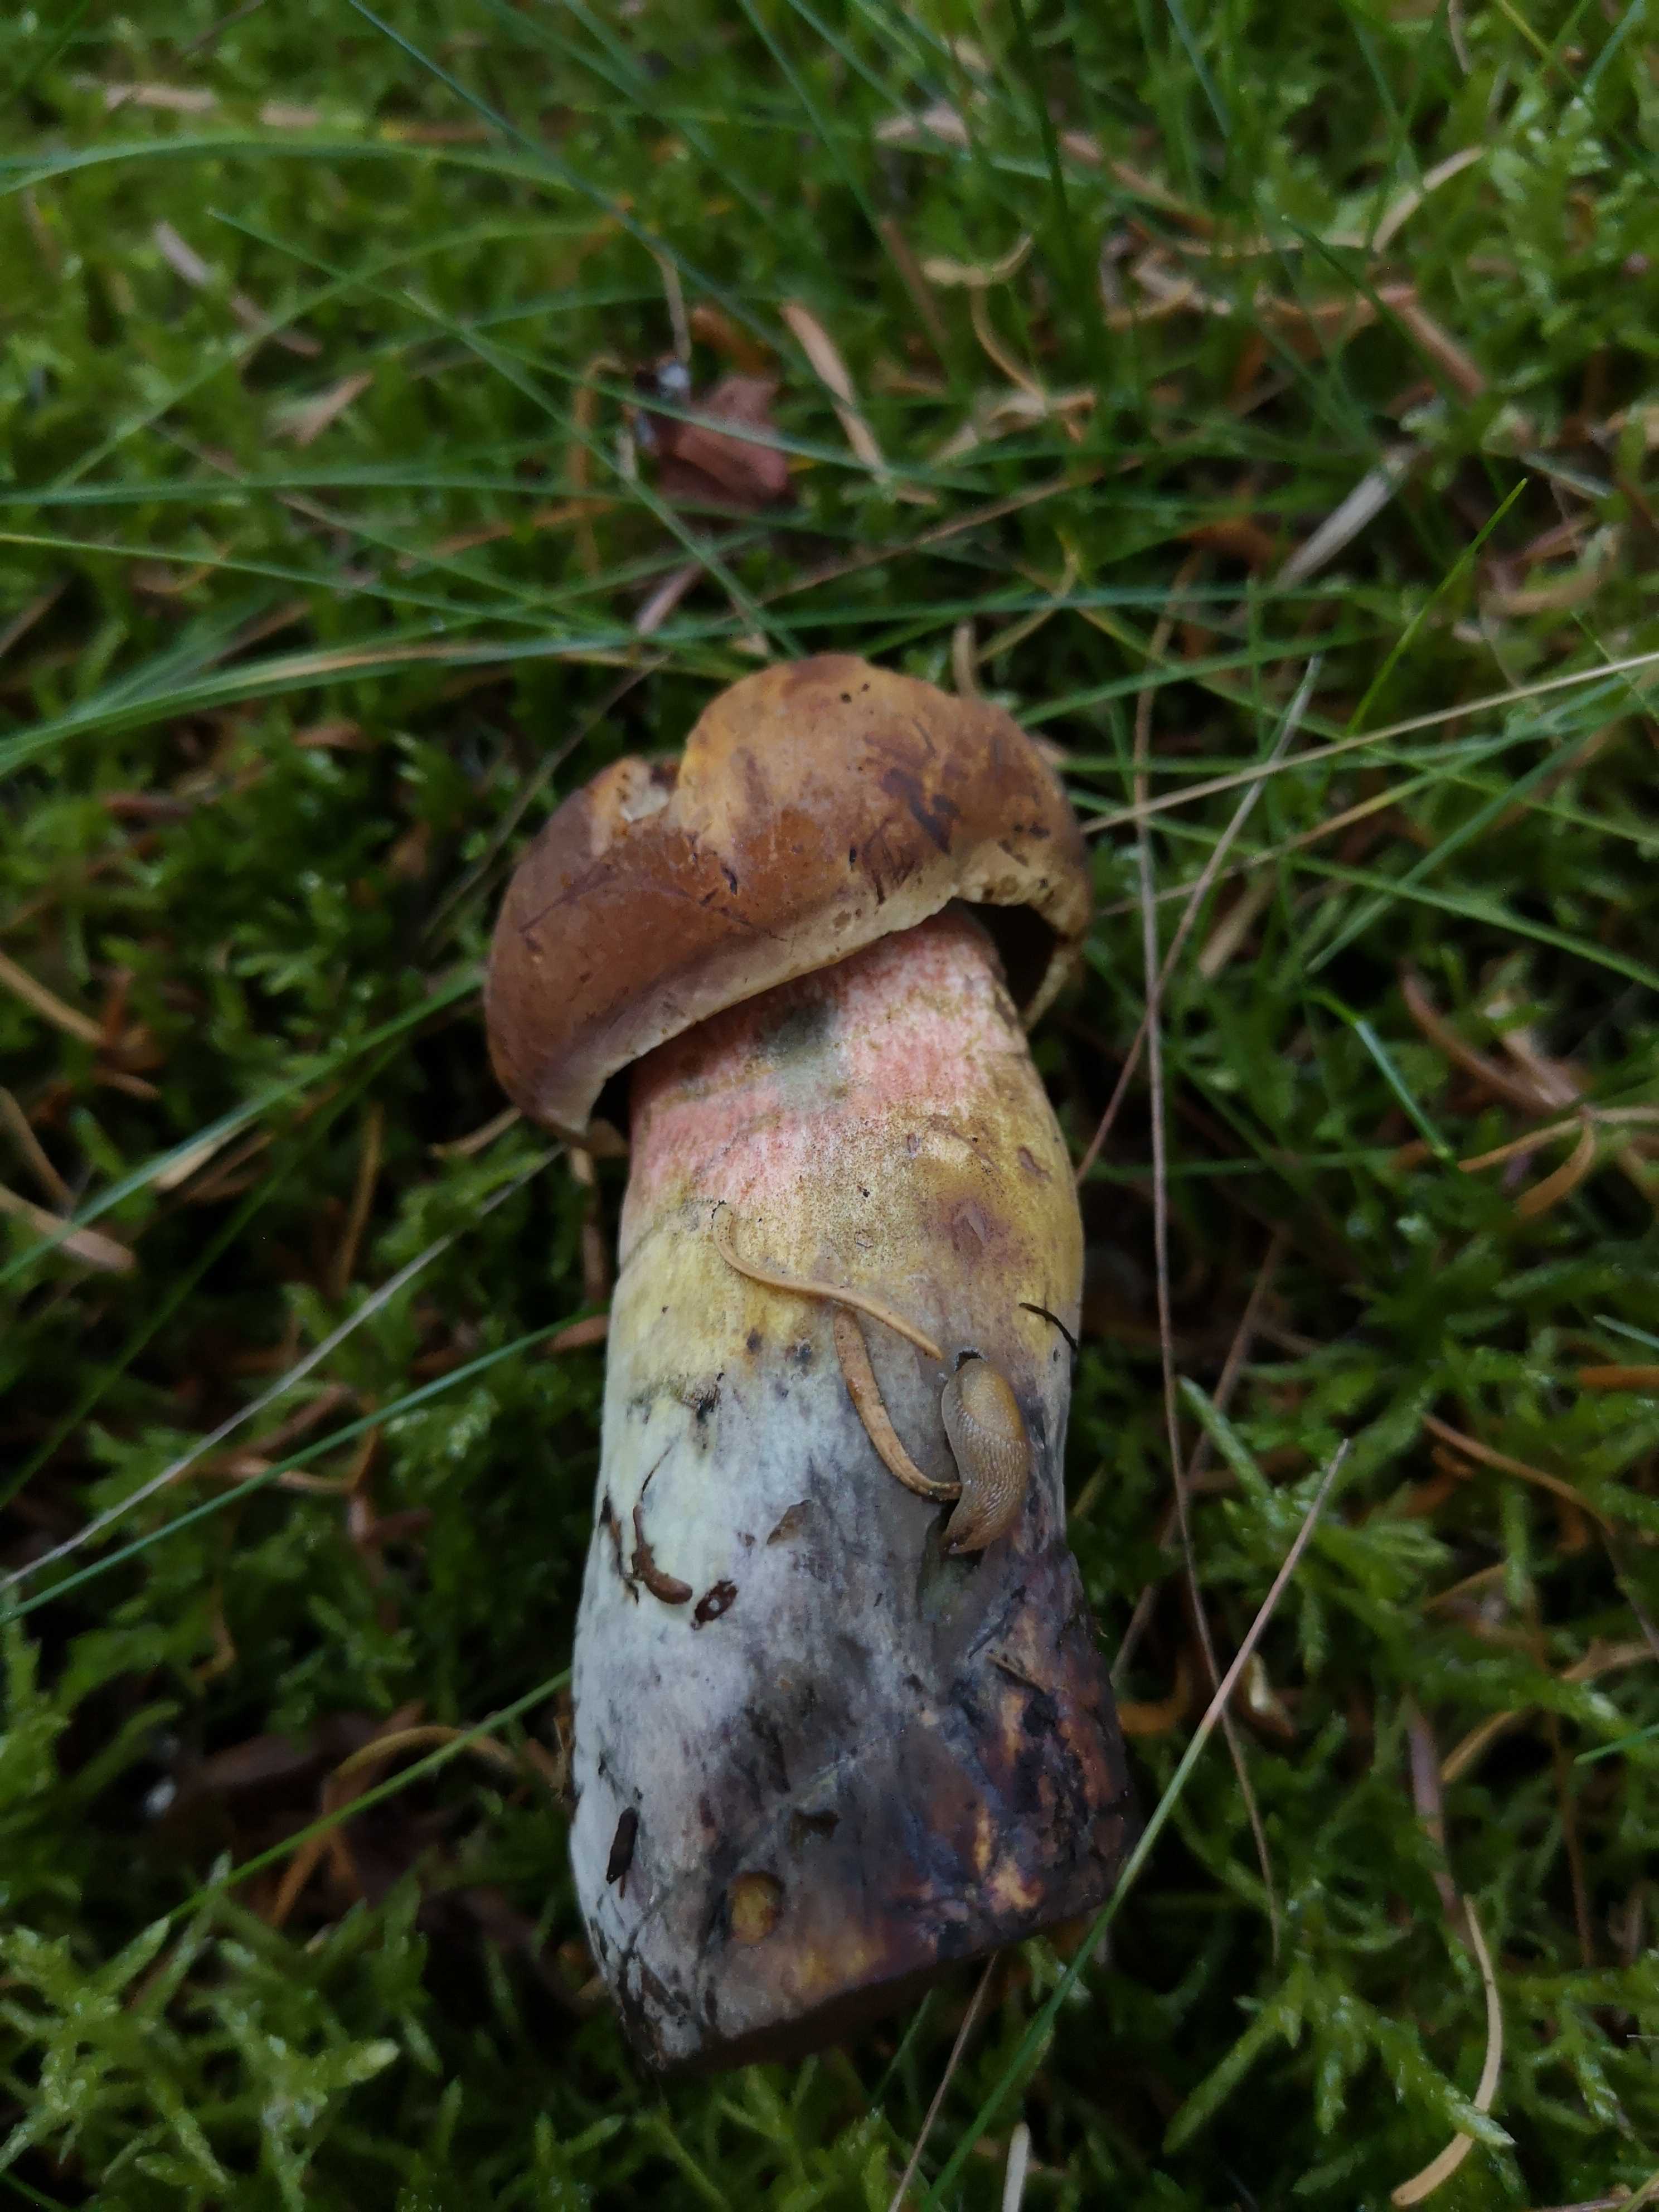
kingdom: Fungi
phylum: Basidiomycota
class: Agaricomycetes
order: Boletales
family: Boletaceae
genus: Neoboletus
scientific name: Neoboletus erythropus
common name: punktstokket indigorørhat
